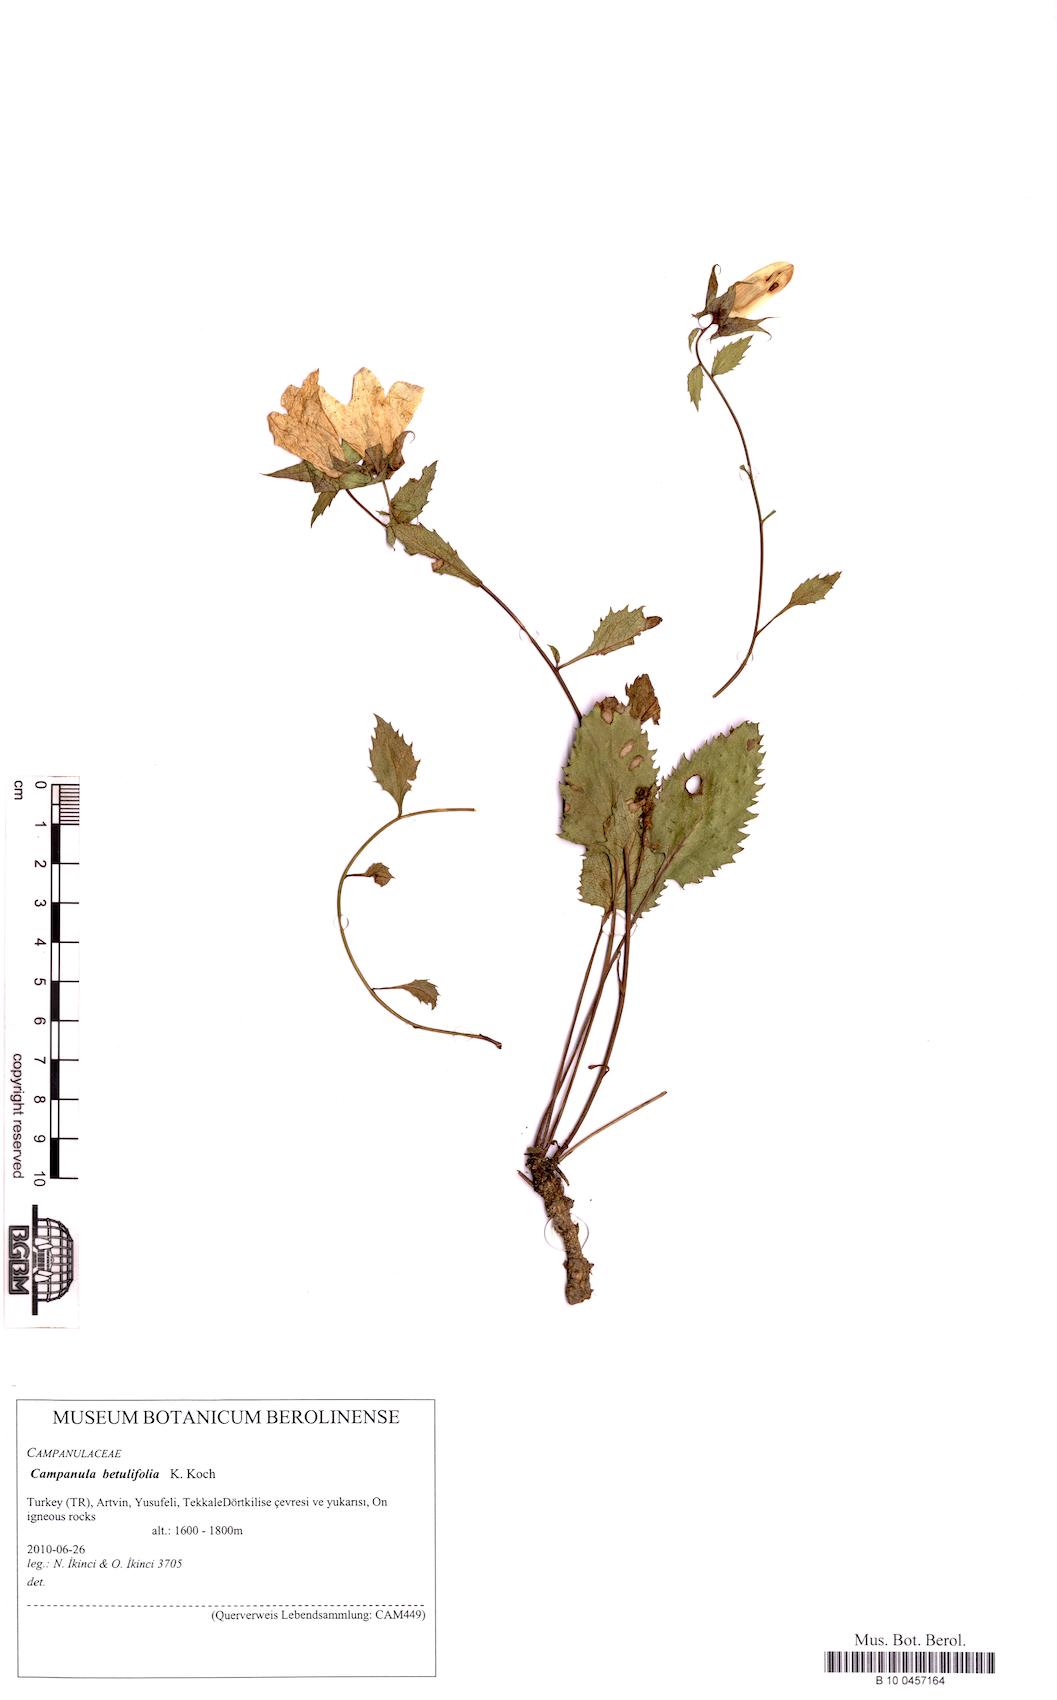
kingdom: Plantae
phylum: Tracheophyta
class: Magnoliopsida
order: Asterales
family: Campanulaceae
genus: Campanula
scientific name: Campanula betulifolia
